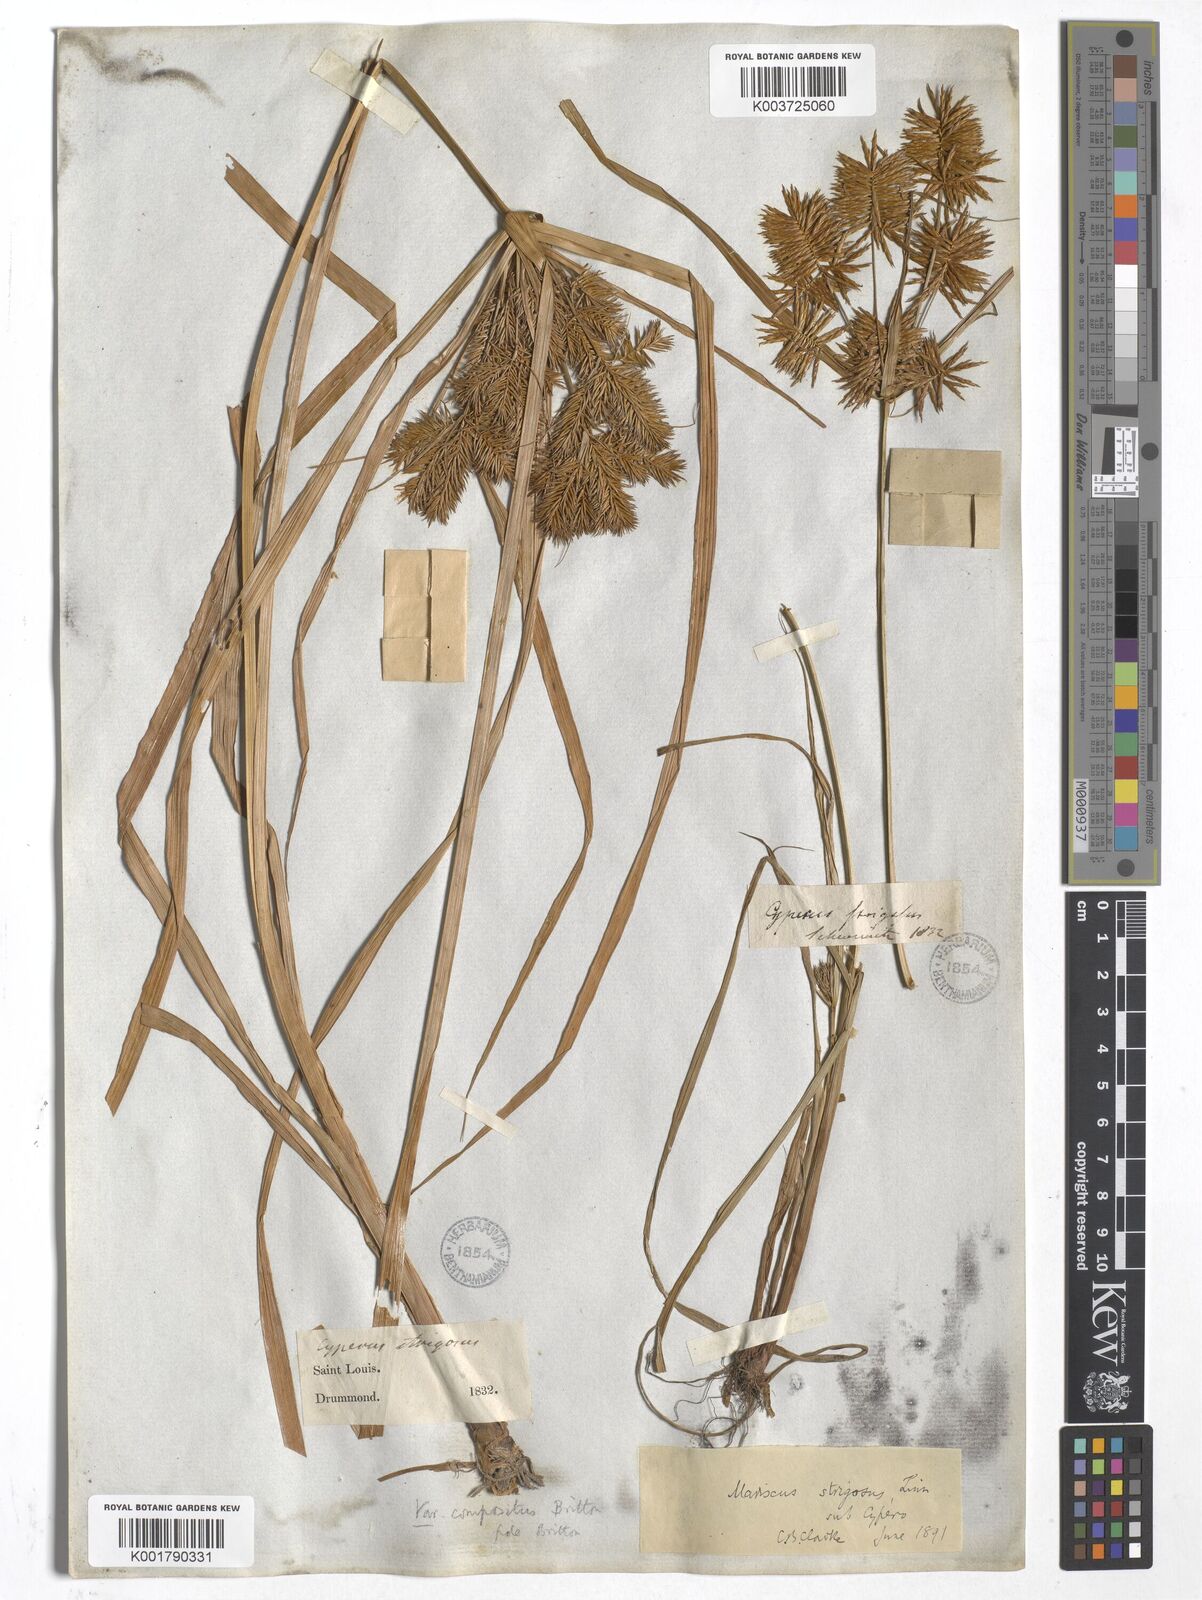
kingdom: Plantae
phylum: Tracheophyta
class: Liliopsida
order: Poales
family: Cyperaceae
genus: Cyperus
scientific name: Cyperus strigosus
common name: False nutsedge
